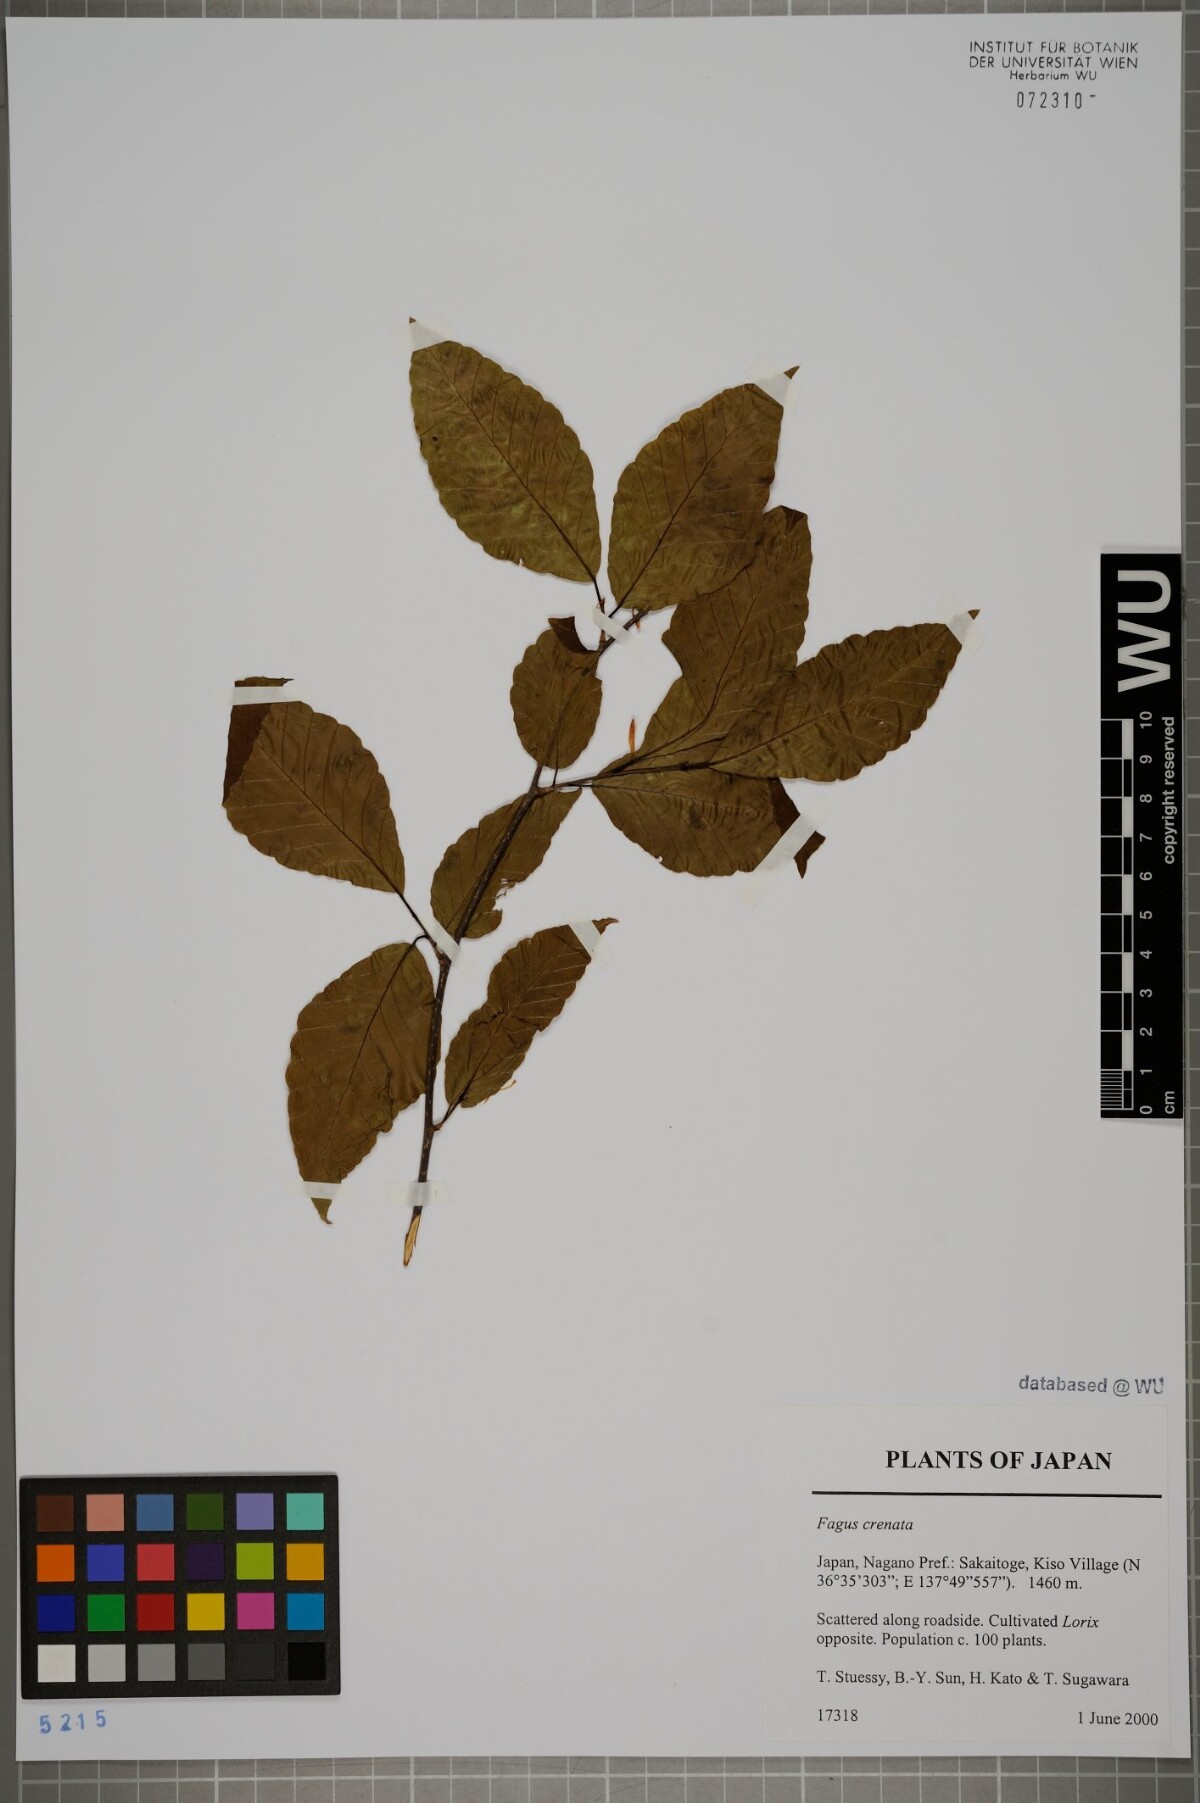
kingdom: Plantae
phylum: Tracheophyta
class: Magnoliopsida
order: Fagales
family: Fagaceae
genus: Fagus
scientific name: Fagus crenata
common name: Japanese beech
